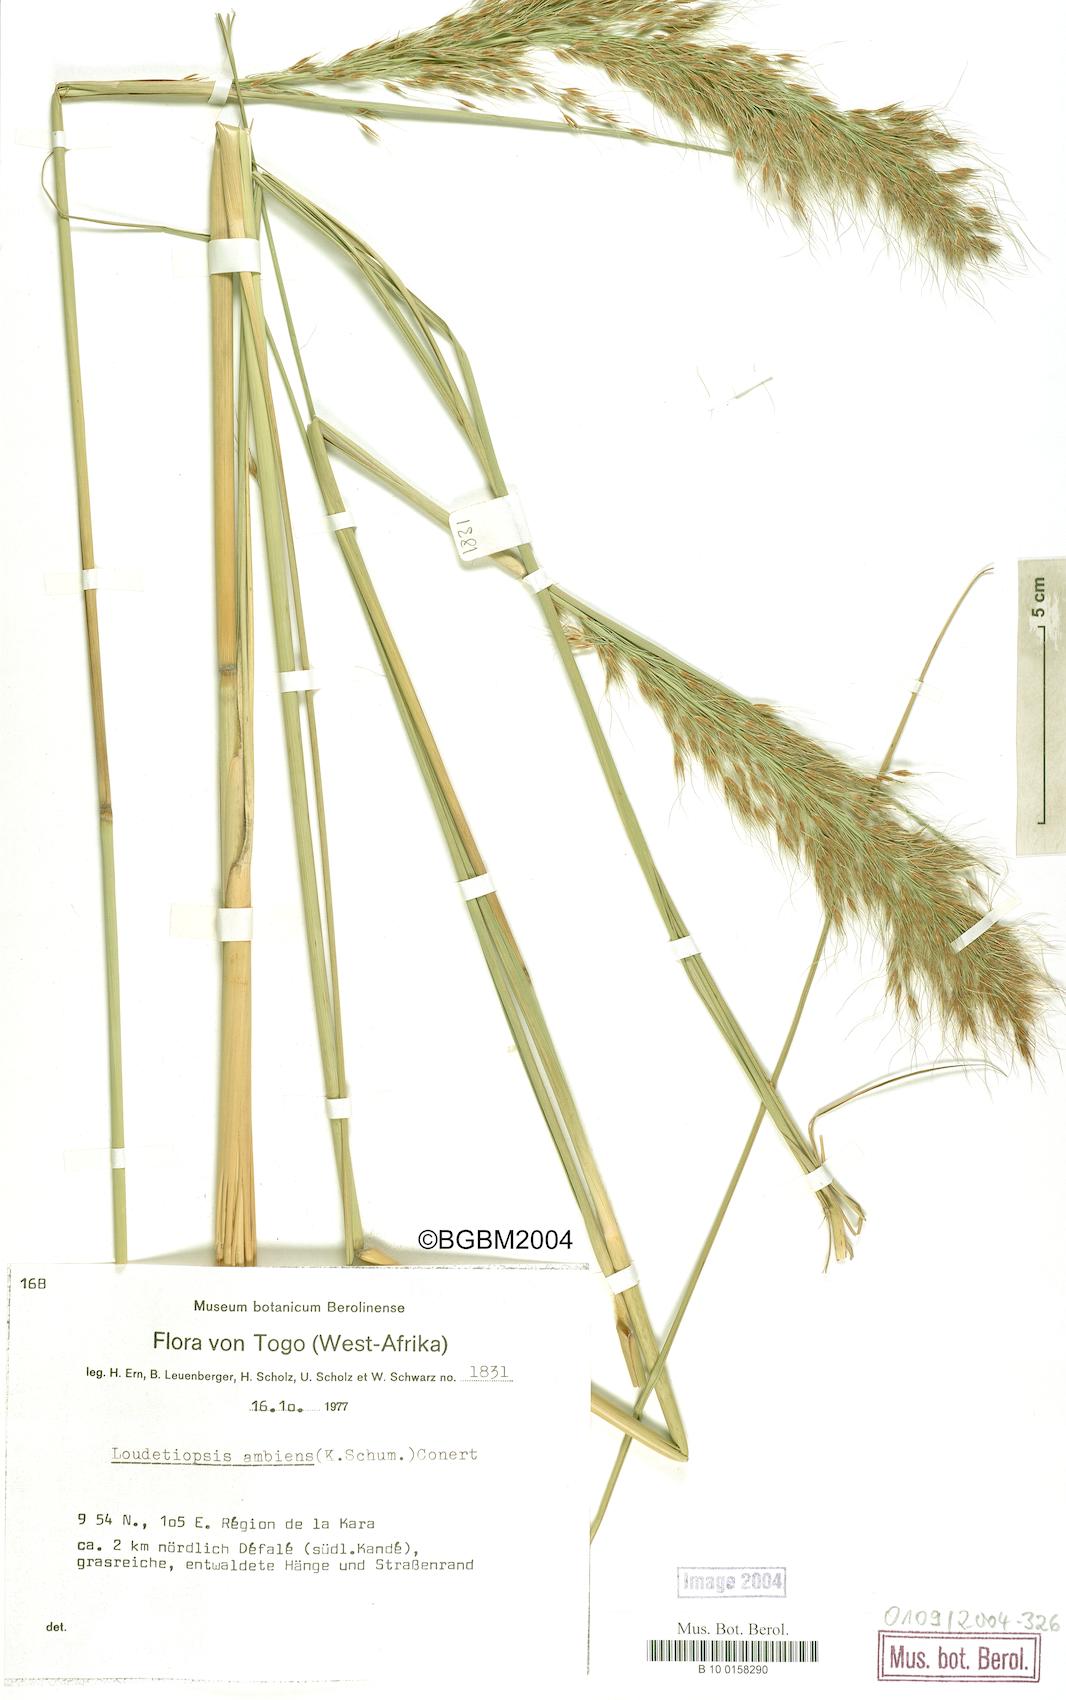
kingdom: Plantae
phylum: Tracheophyta
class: Liliopsida
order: Poales
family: Poaceae
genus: Loudetiopsis
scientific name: Loudetiopsis ambiens
